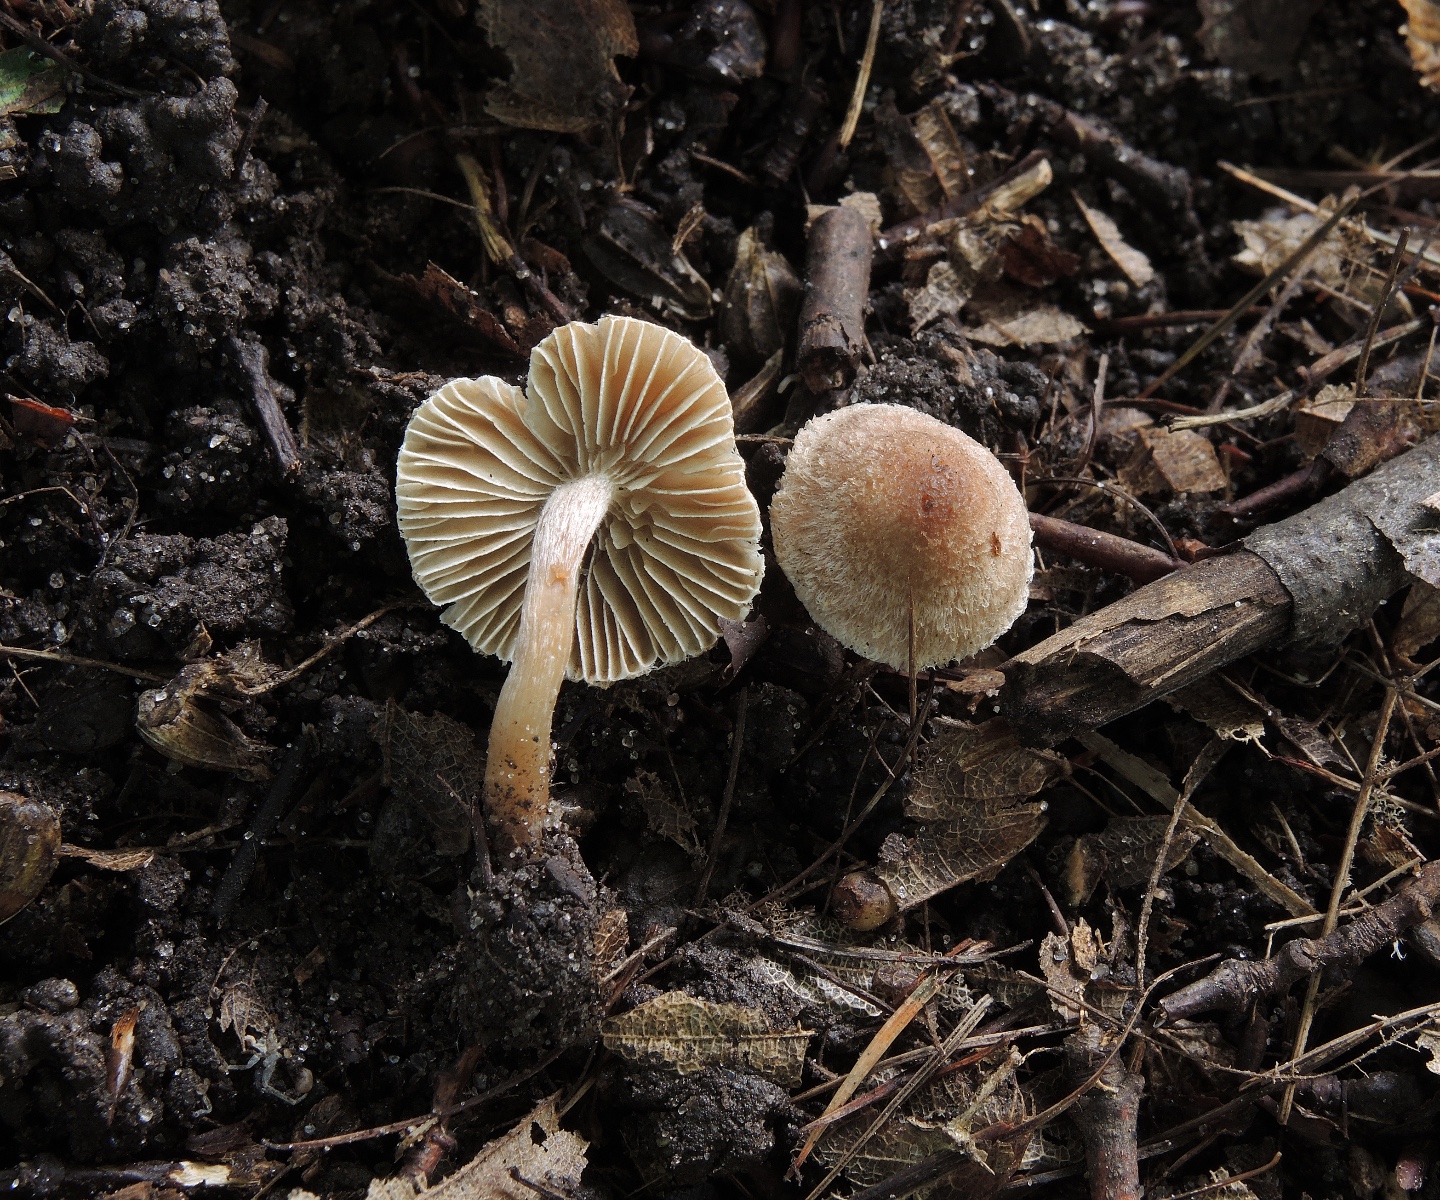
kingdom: Fungi
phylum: Basidiomycota
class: Agaricomycetes
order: Agaricales
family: Inocybaceae
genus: Inocybe
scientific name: Inocybe pseudorubens
